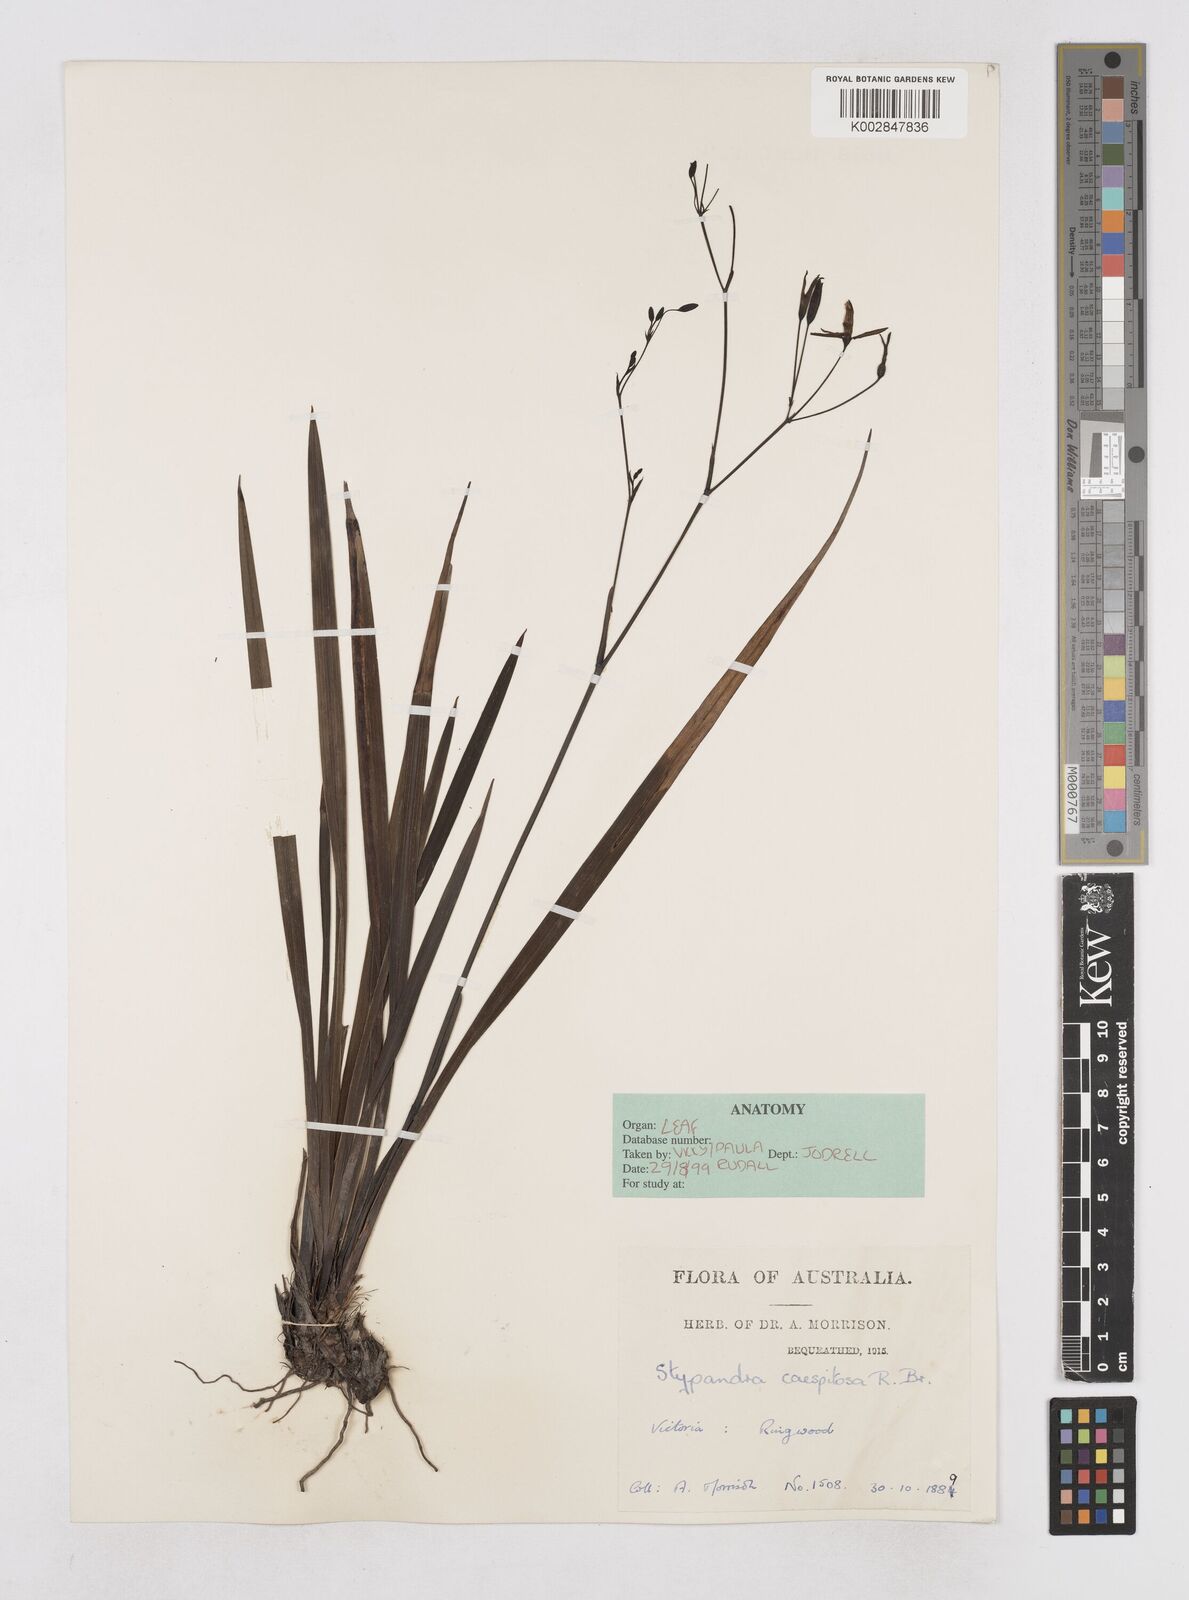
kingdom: Plantae
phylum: Tracheophyta
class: Liliopsida
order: Asparagales
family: Asphodelaceae
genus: Thelionema
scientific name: Thelionema caespitosum
